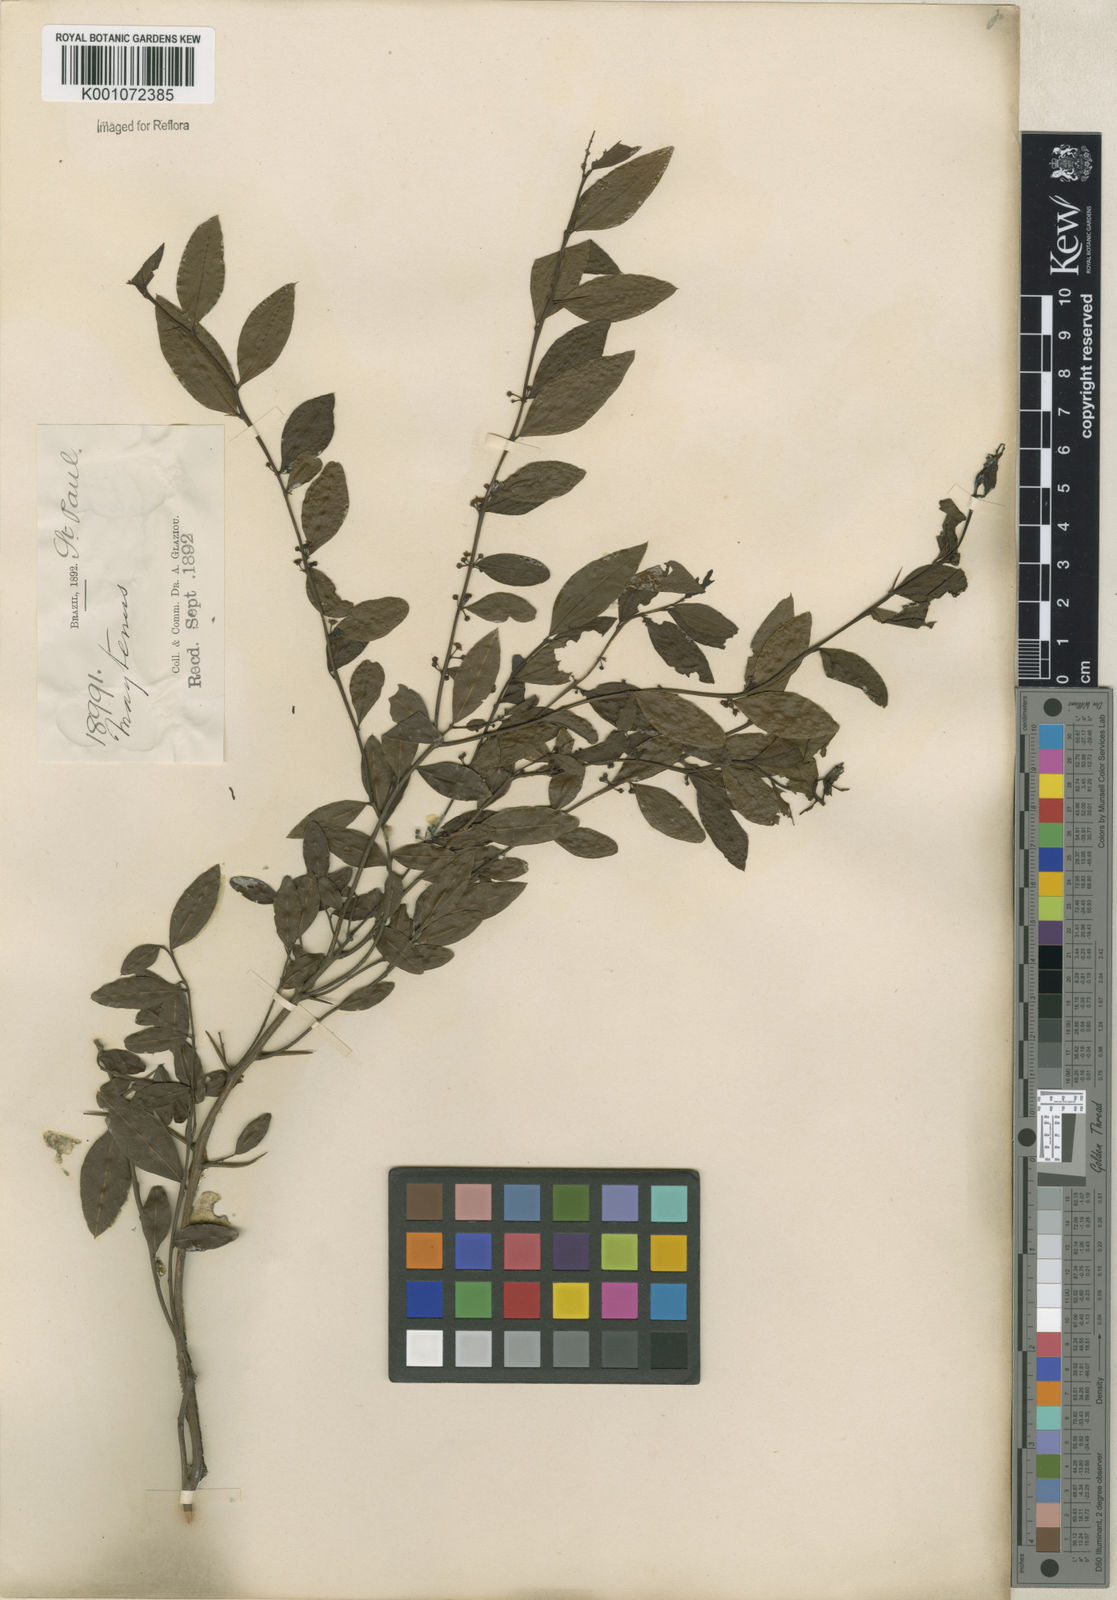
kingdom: Plantae
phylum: Tracheophyta
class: Magnoliopsida
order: Celastrales
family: Celastraceae
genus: Maytenus
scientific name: Maytenus
